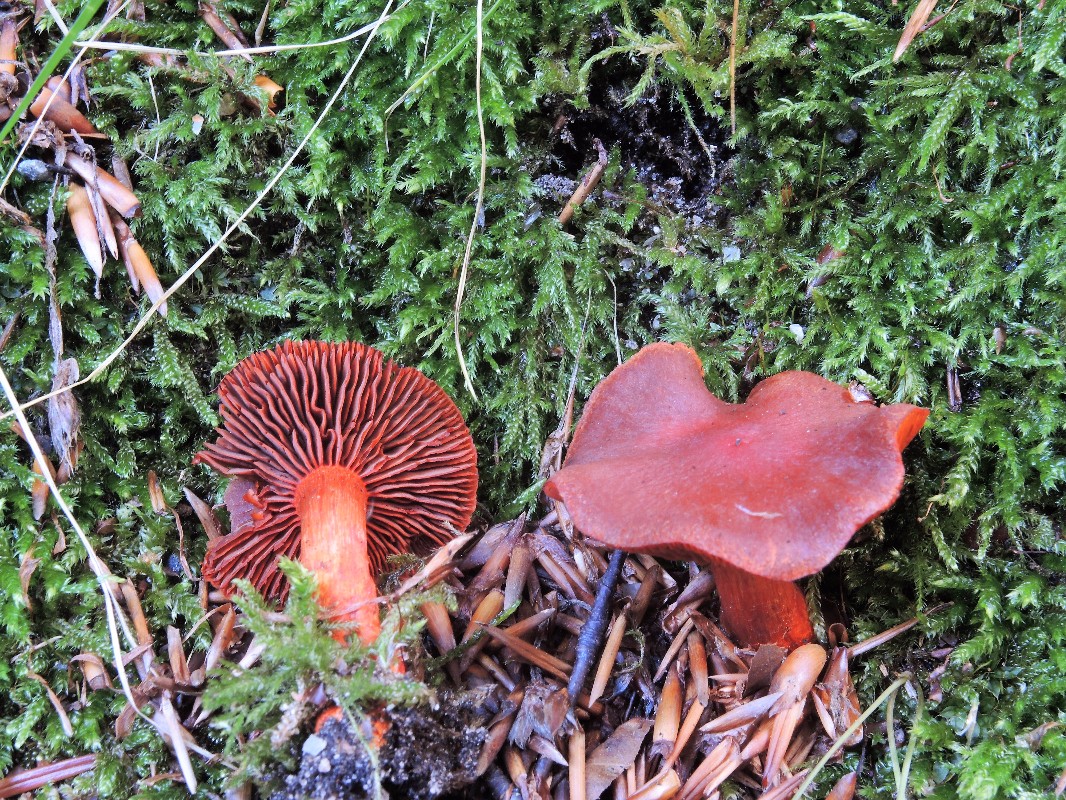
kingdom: Fungi
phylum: Basidiomycota
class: Agaricomycetes
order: Agaricales
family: Cortinariaceae
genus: Cortinarius
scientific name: Cortinarius cinnabarinus
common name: cinnober-slørhat
